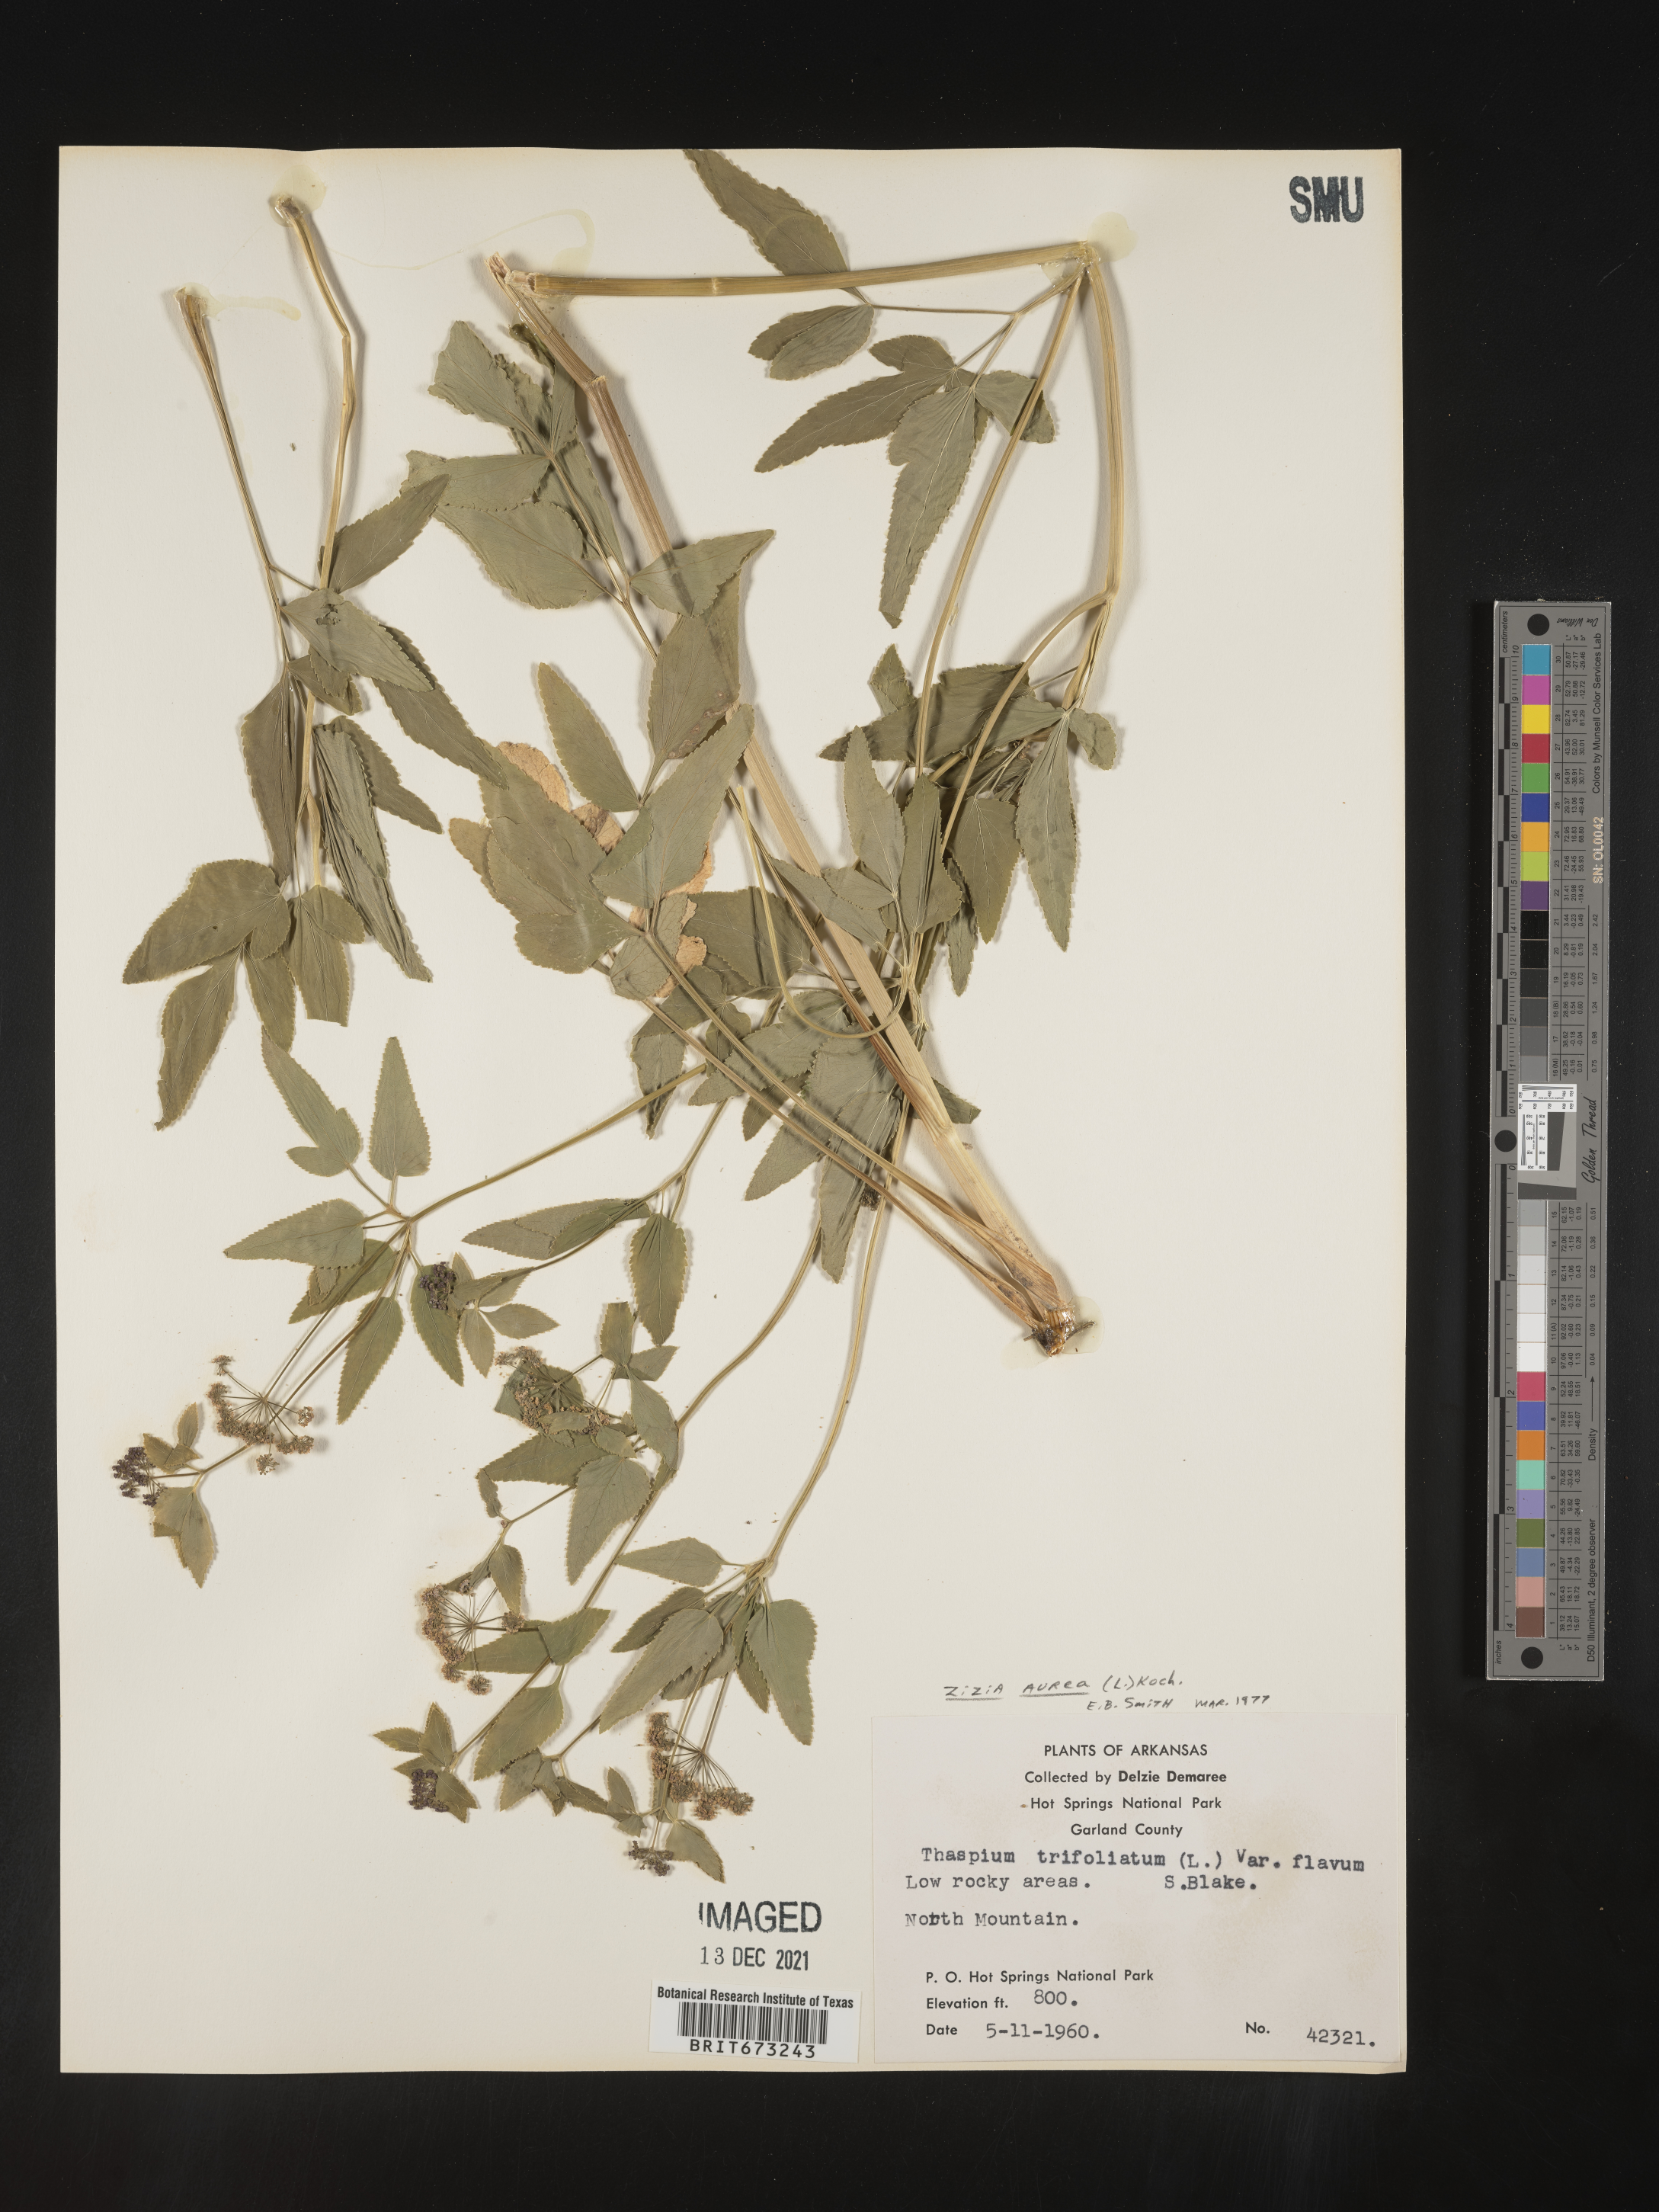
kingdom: Plantae
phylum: Tracheophyta
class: Magnoliopsida
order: Apiales
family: Apiaceae
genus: Zizia
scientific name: Zizia aurea
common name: Golden alexanders
